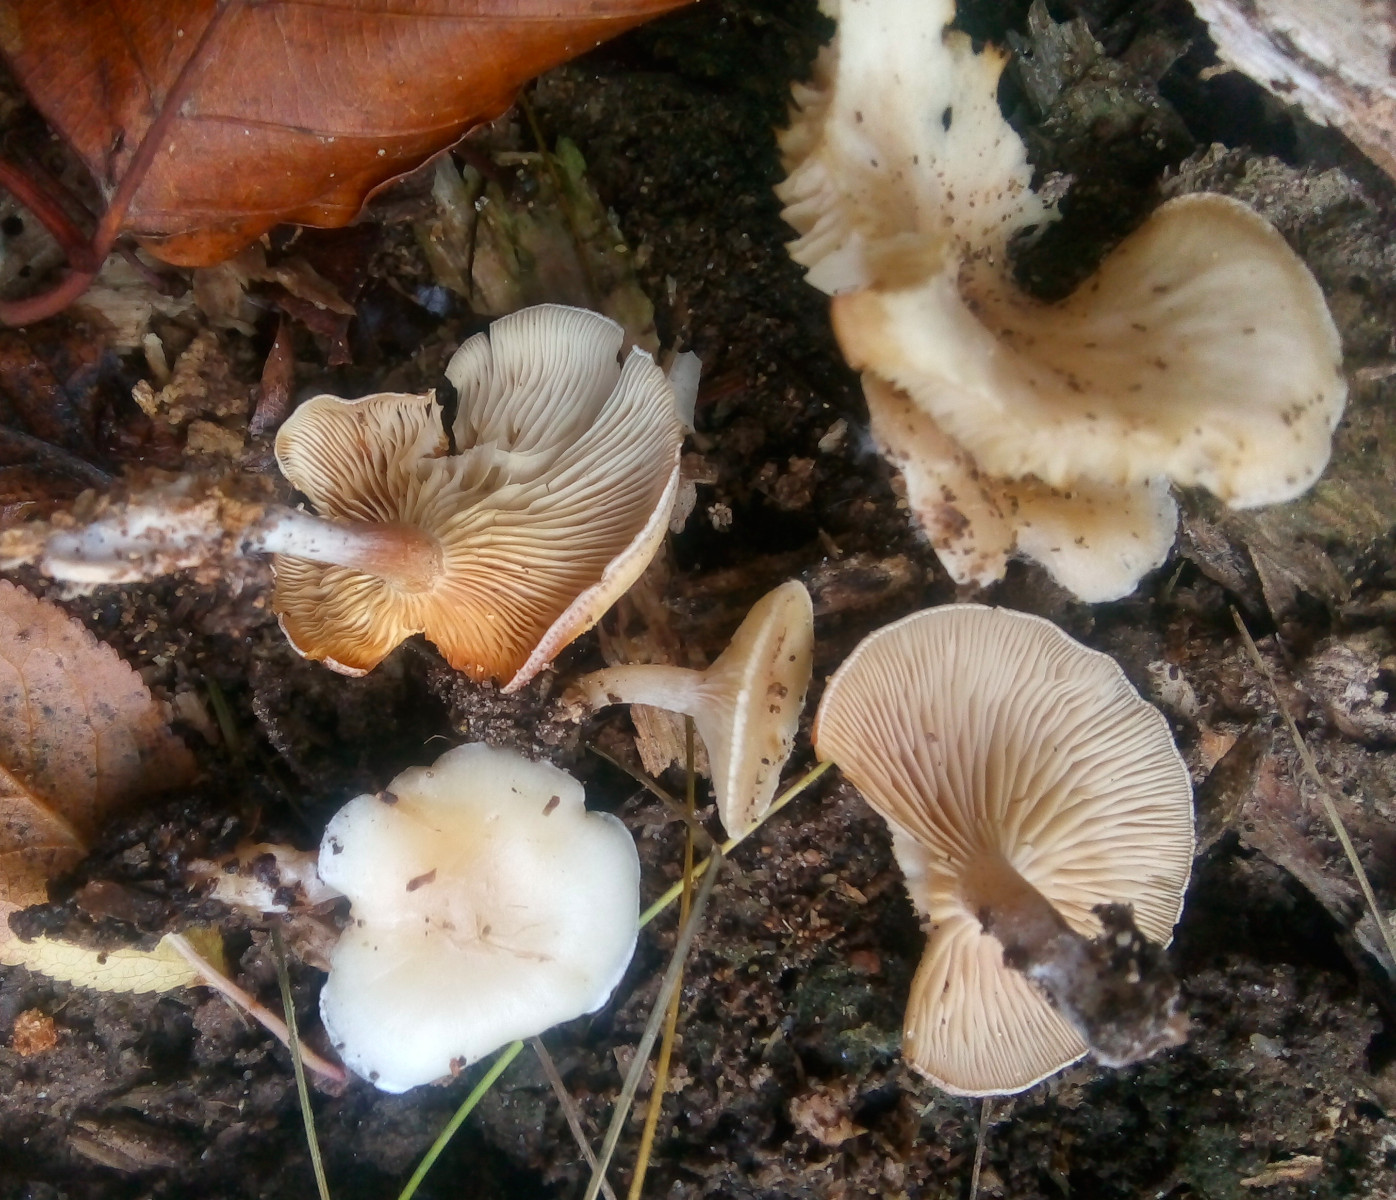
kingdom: Fungi
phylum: Basidiomycota
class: Agaricomycetes
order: Agaricales
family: Tricholomataceae
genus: Clitocybe
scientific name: Clitocybe
